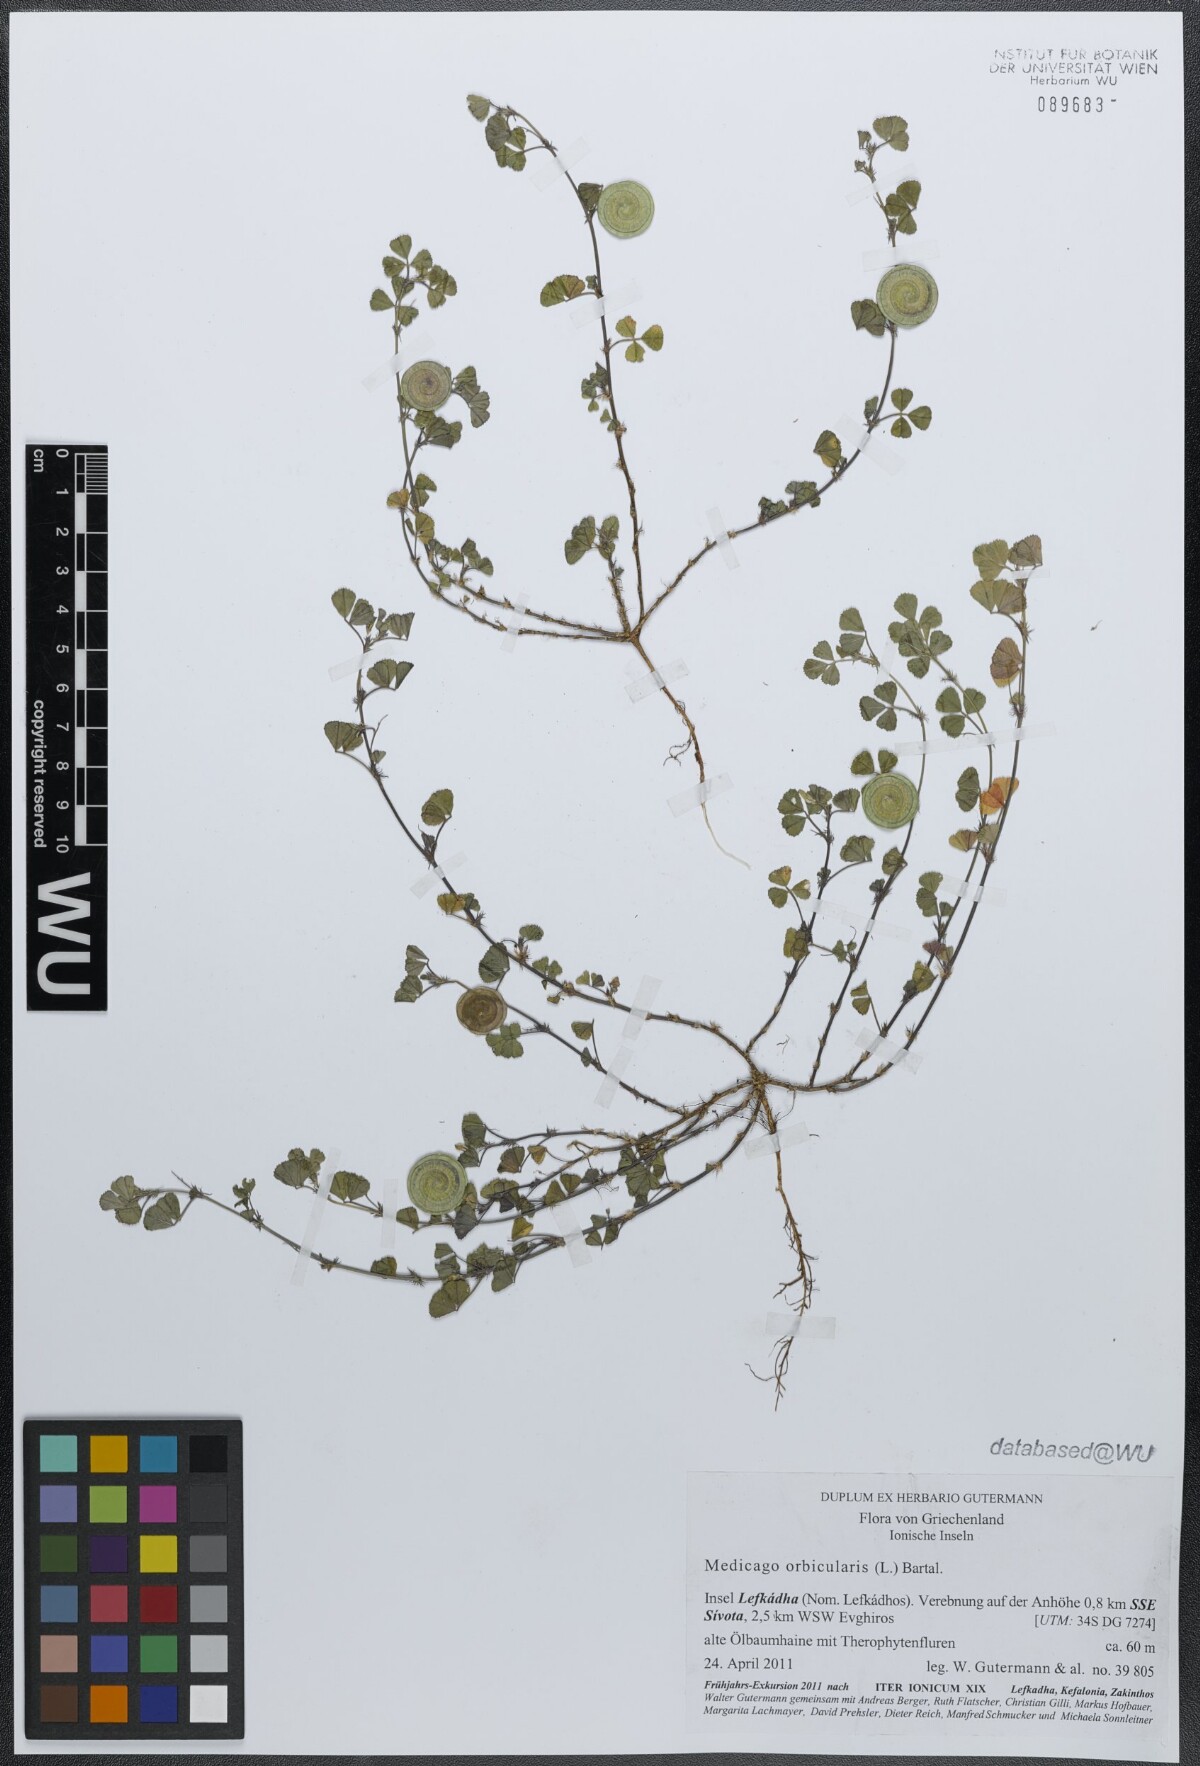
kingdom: Plantae
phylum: Tracheophyta
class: Magnoliopsida
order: Fabales
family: Fabaceae
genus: Medicago
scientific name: Medicago orbicularis
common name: Button medick
